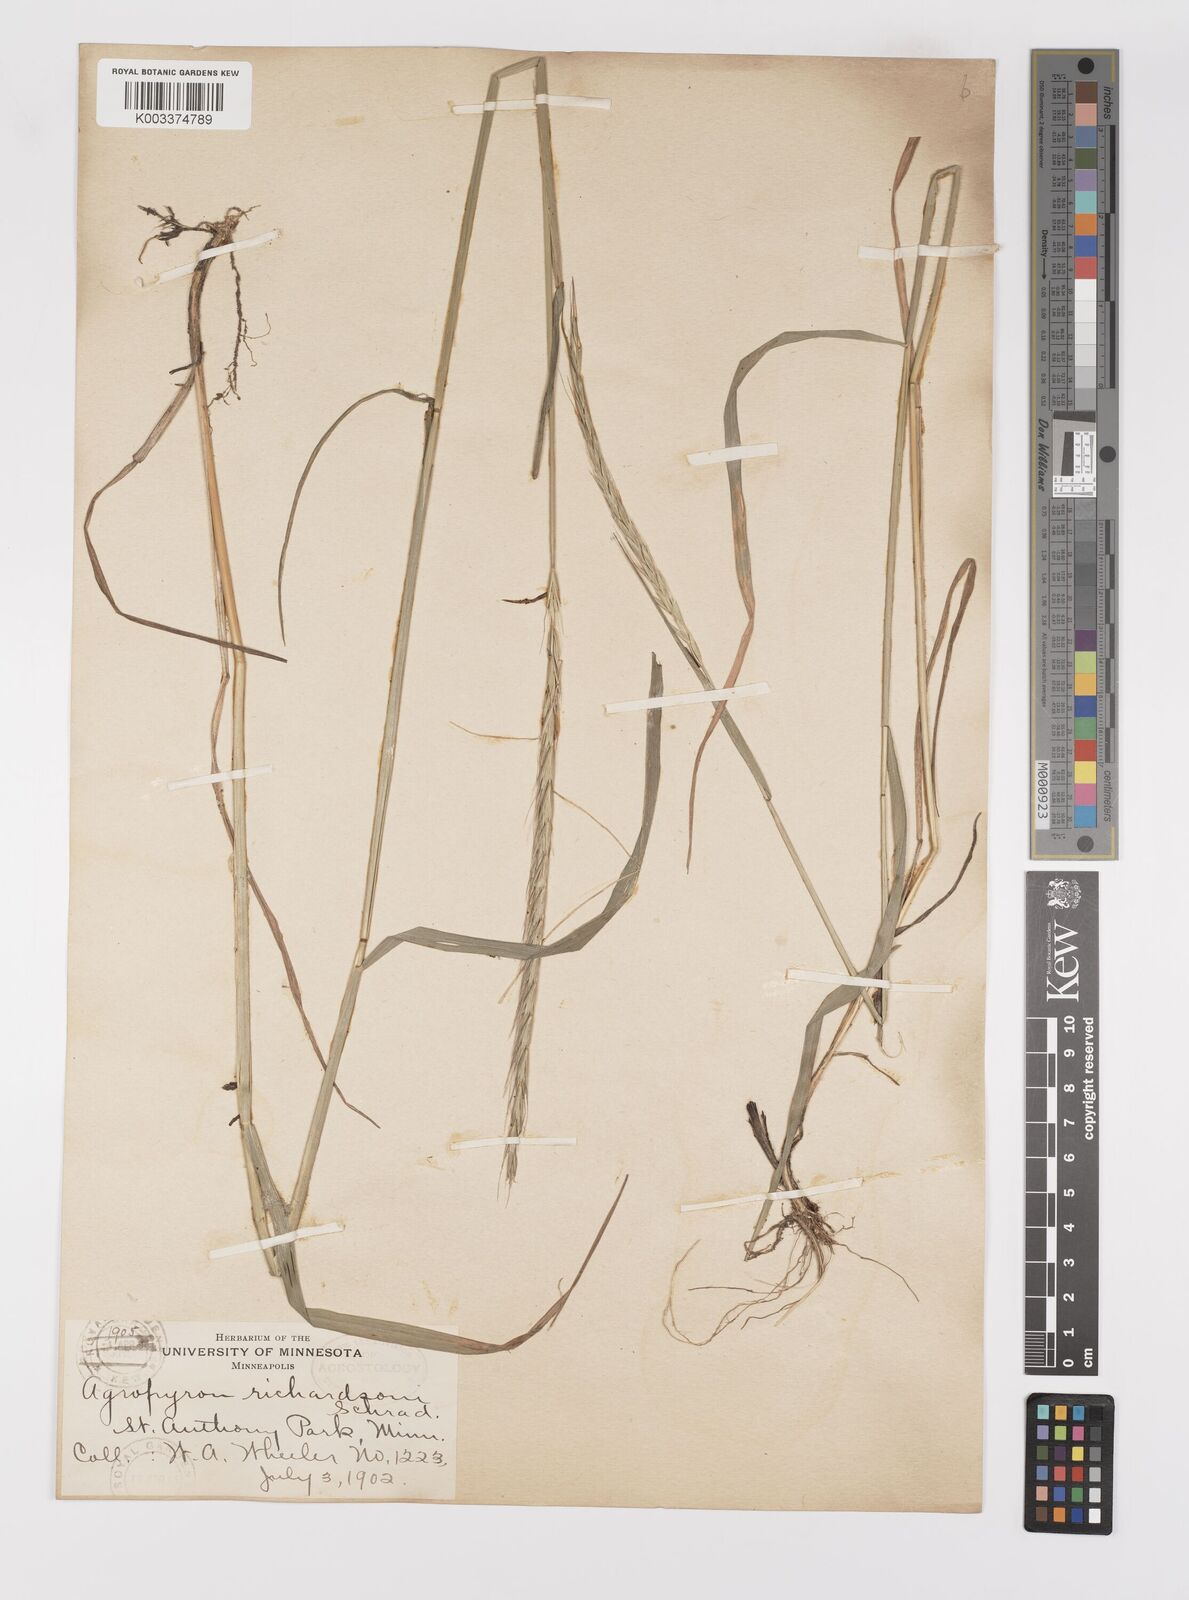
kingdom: Plantae
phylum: Tracheophyta
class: Liliopsida
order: Poales
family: Poaceae
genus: Elymus
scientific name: Elymus violaceus
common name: Arctic wheatgrass
